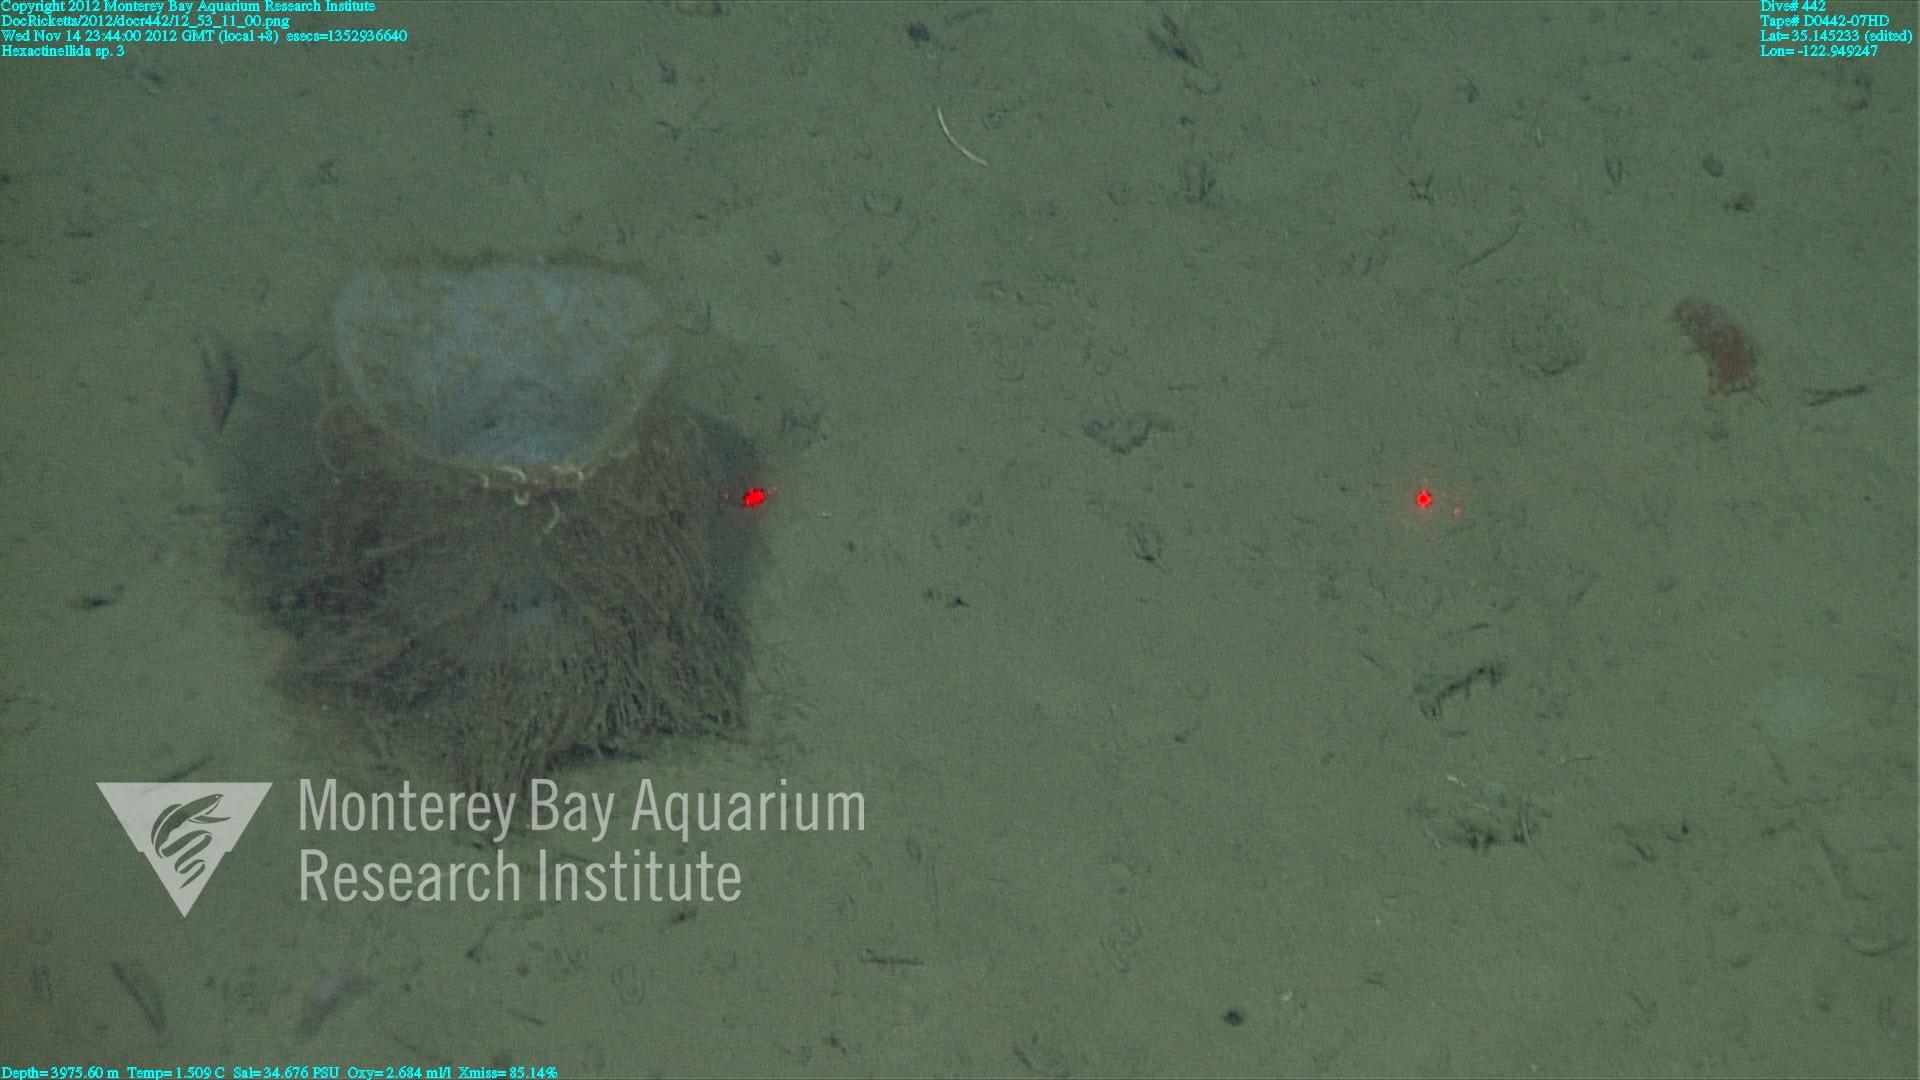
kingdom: Animalia
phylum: Porifera
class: Hexactinellida
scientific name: Hexactinellida
